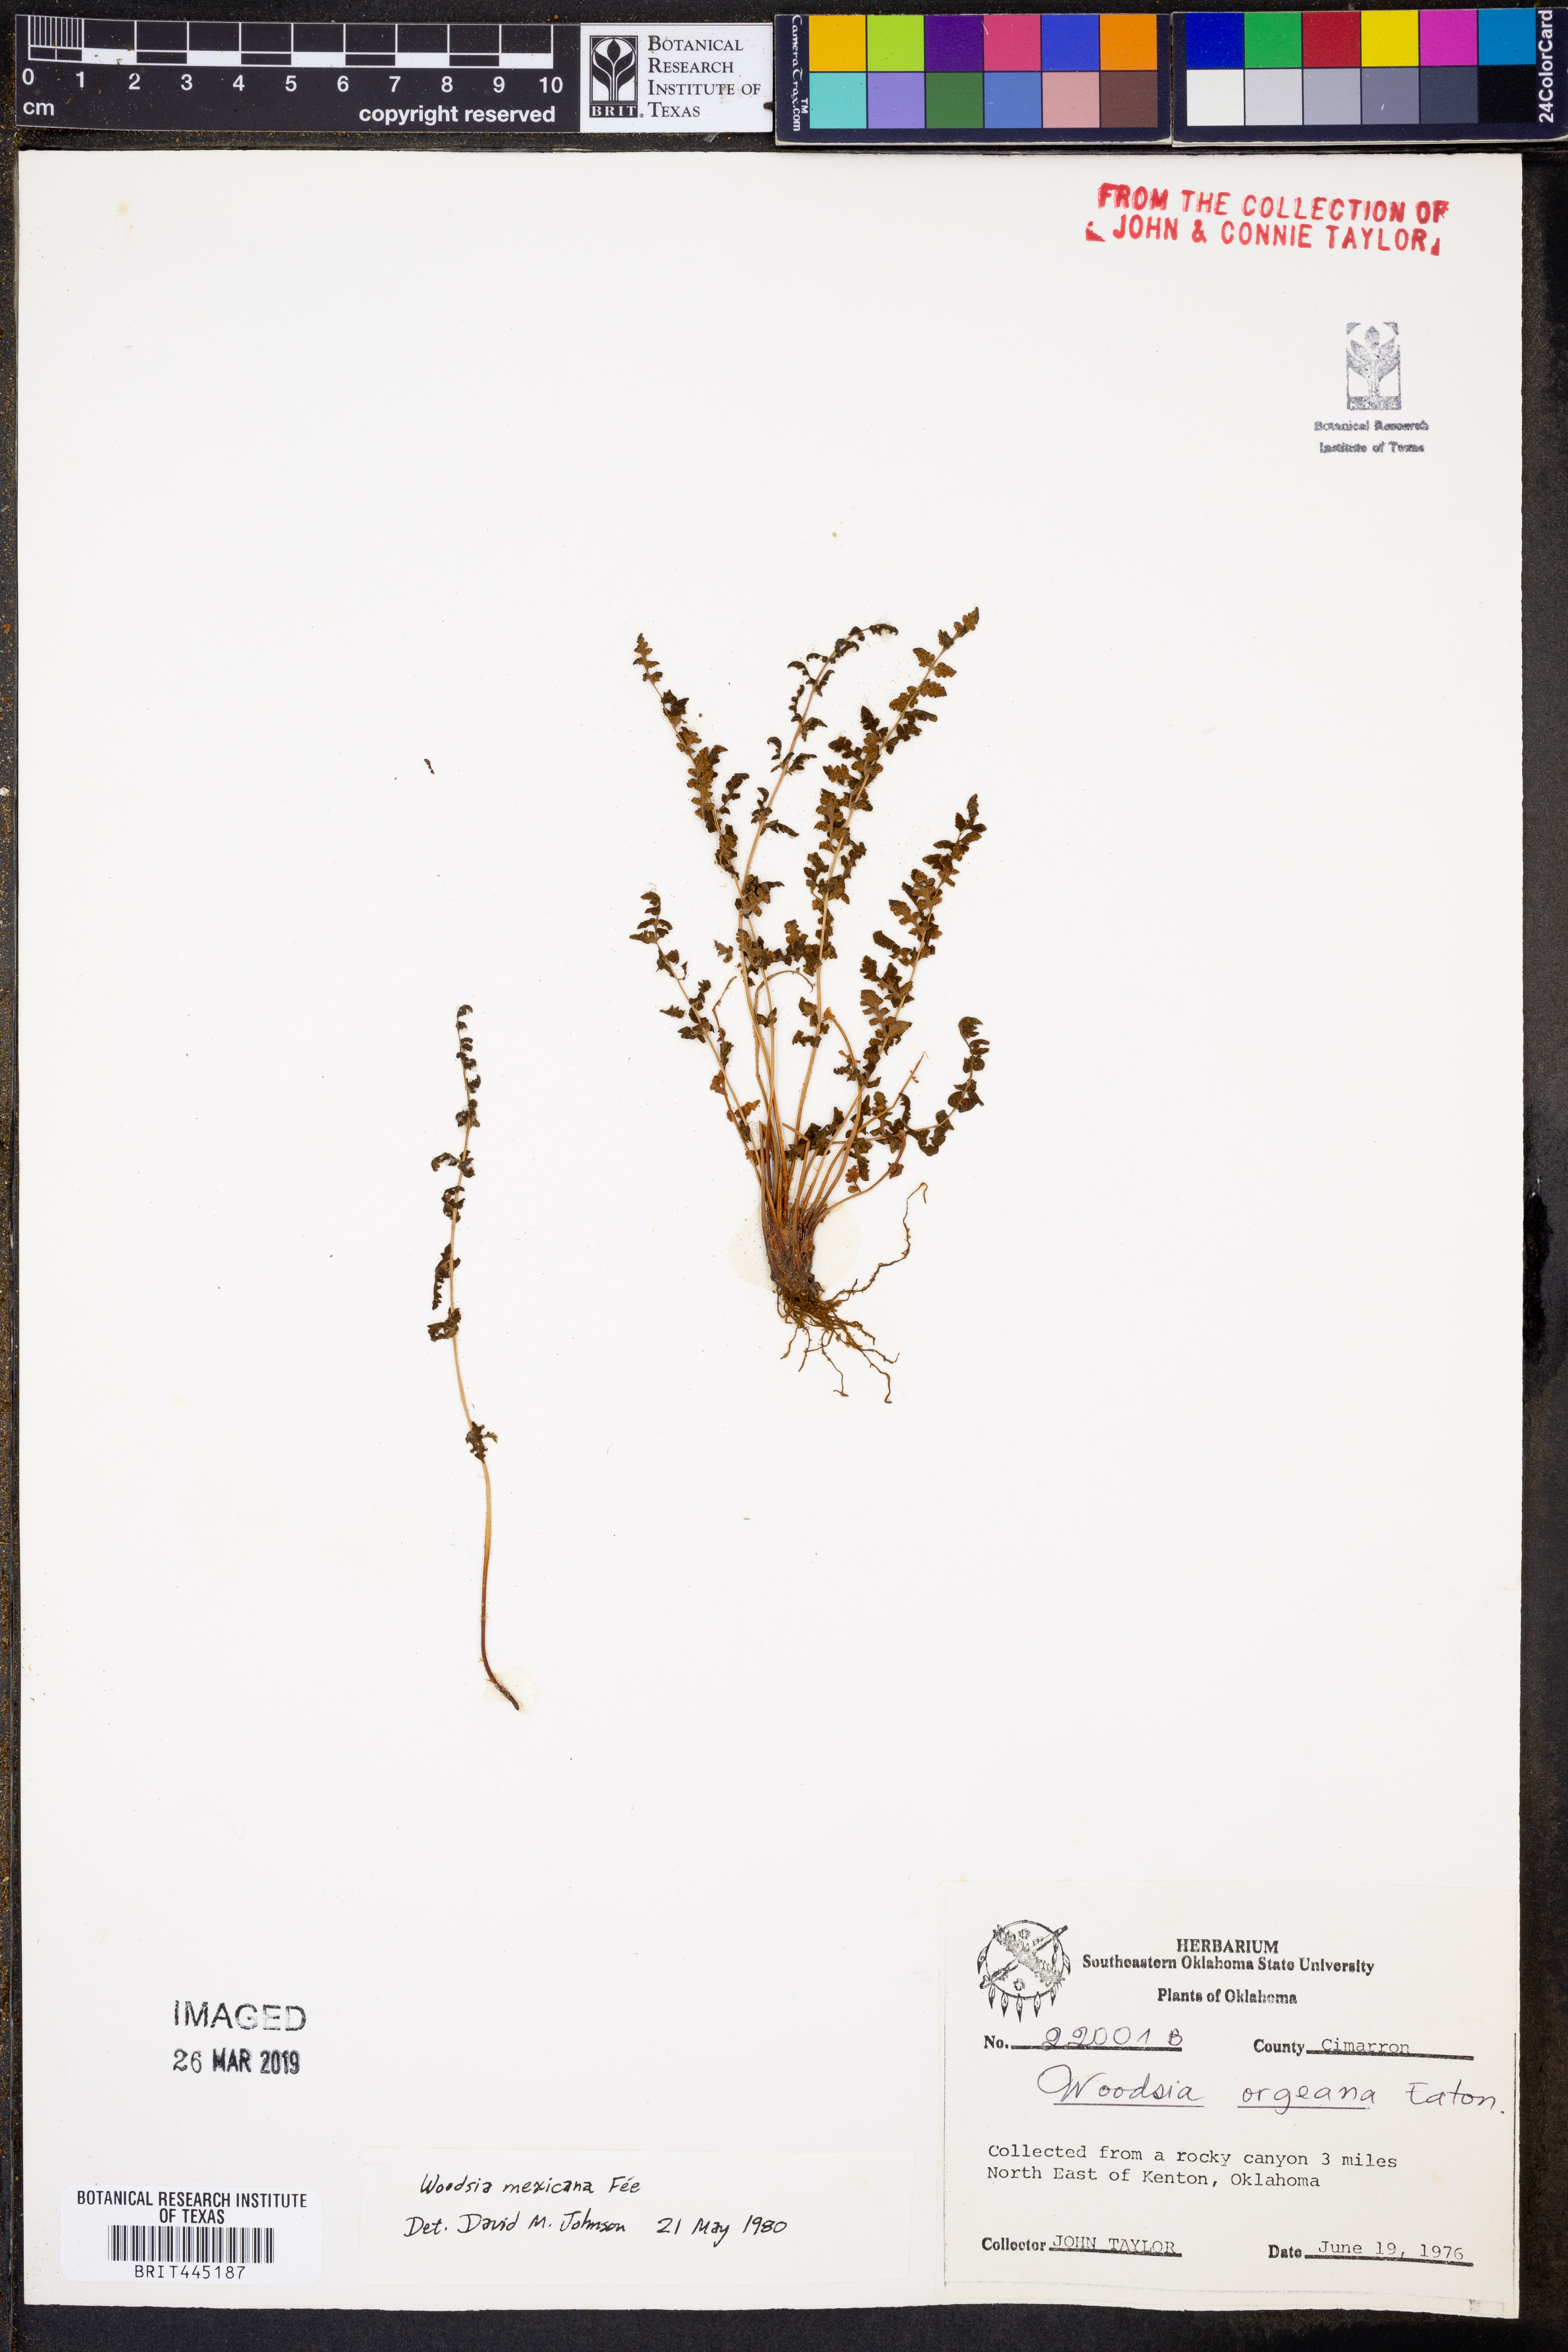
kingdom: Plantae
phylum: Tracheophyta
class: Polypodiopsida
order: Polypodiales
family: Woodsiaceae
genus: Physematium
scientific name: Physematium oreganum
